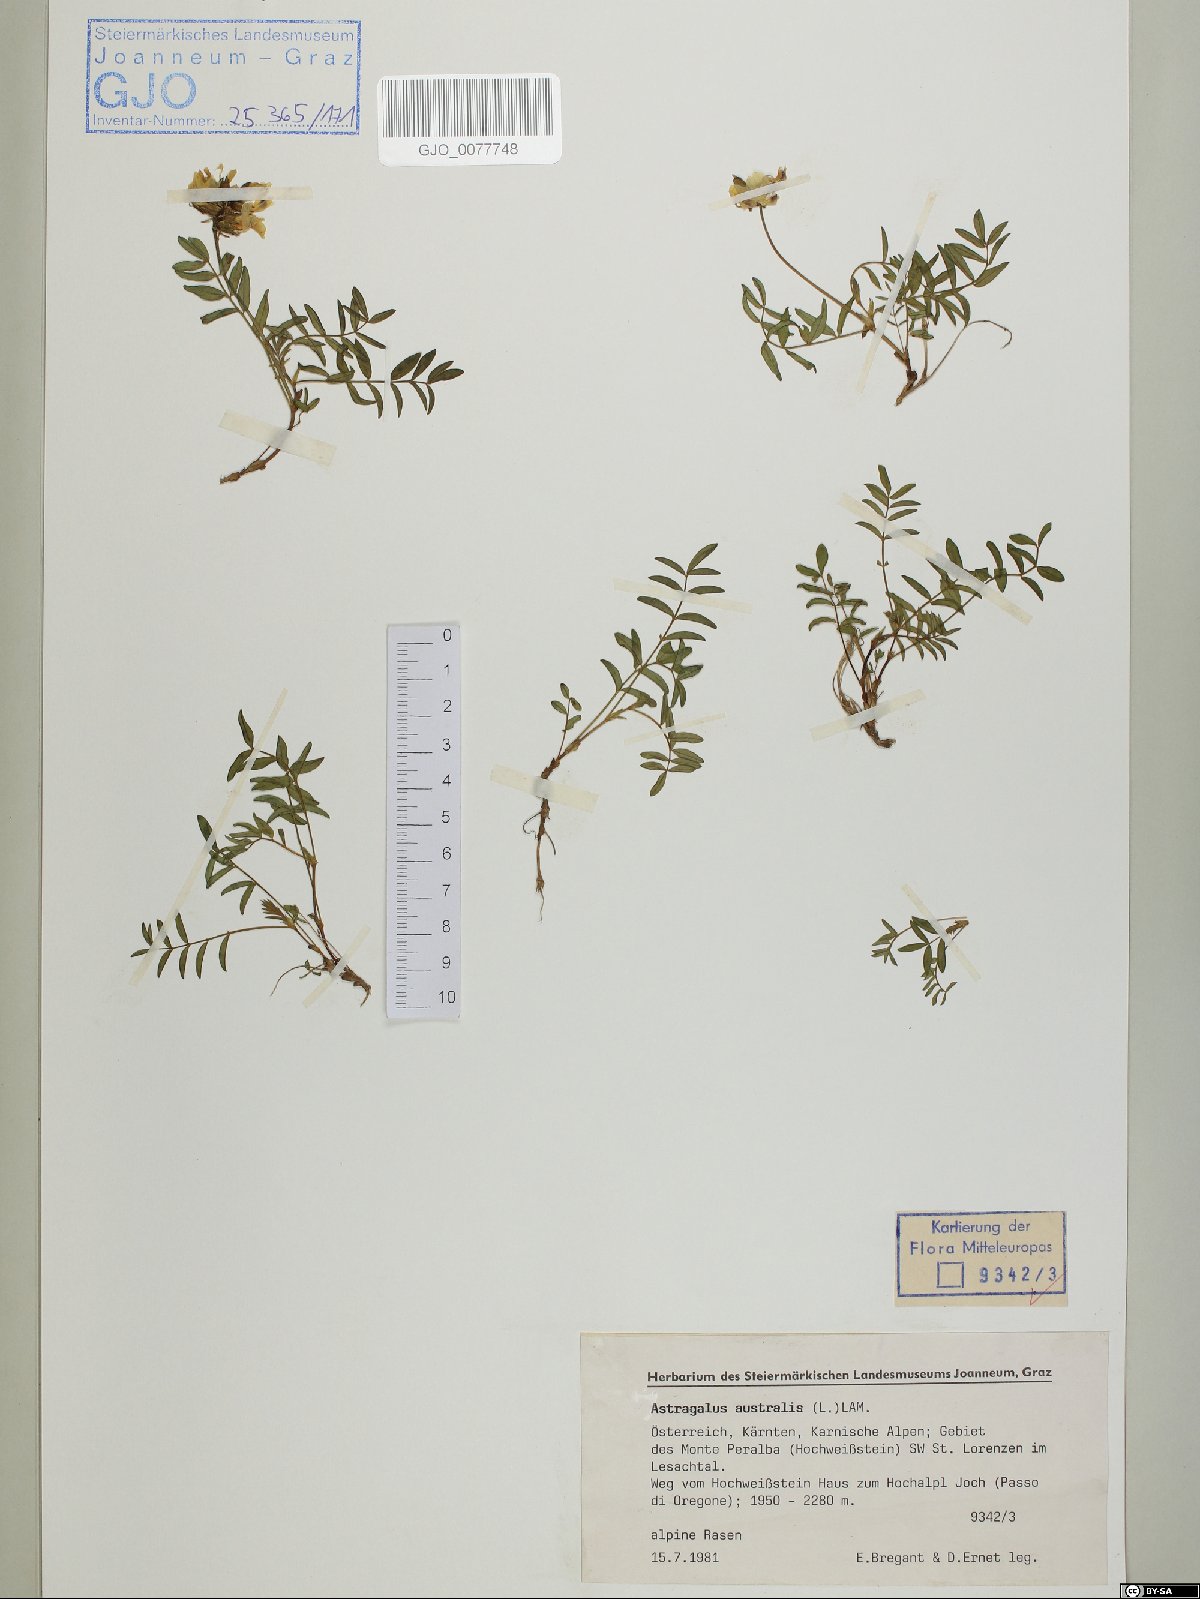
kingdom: Plantae
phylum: Tracheophyta
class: Magnoliopsida
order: Fabales
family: Fabaceae
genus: Astragalus
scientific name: Astragalus australis
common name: Indian milk-vetch
